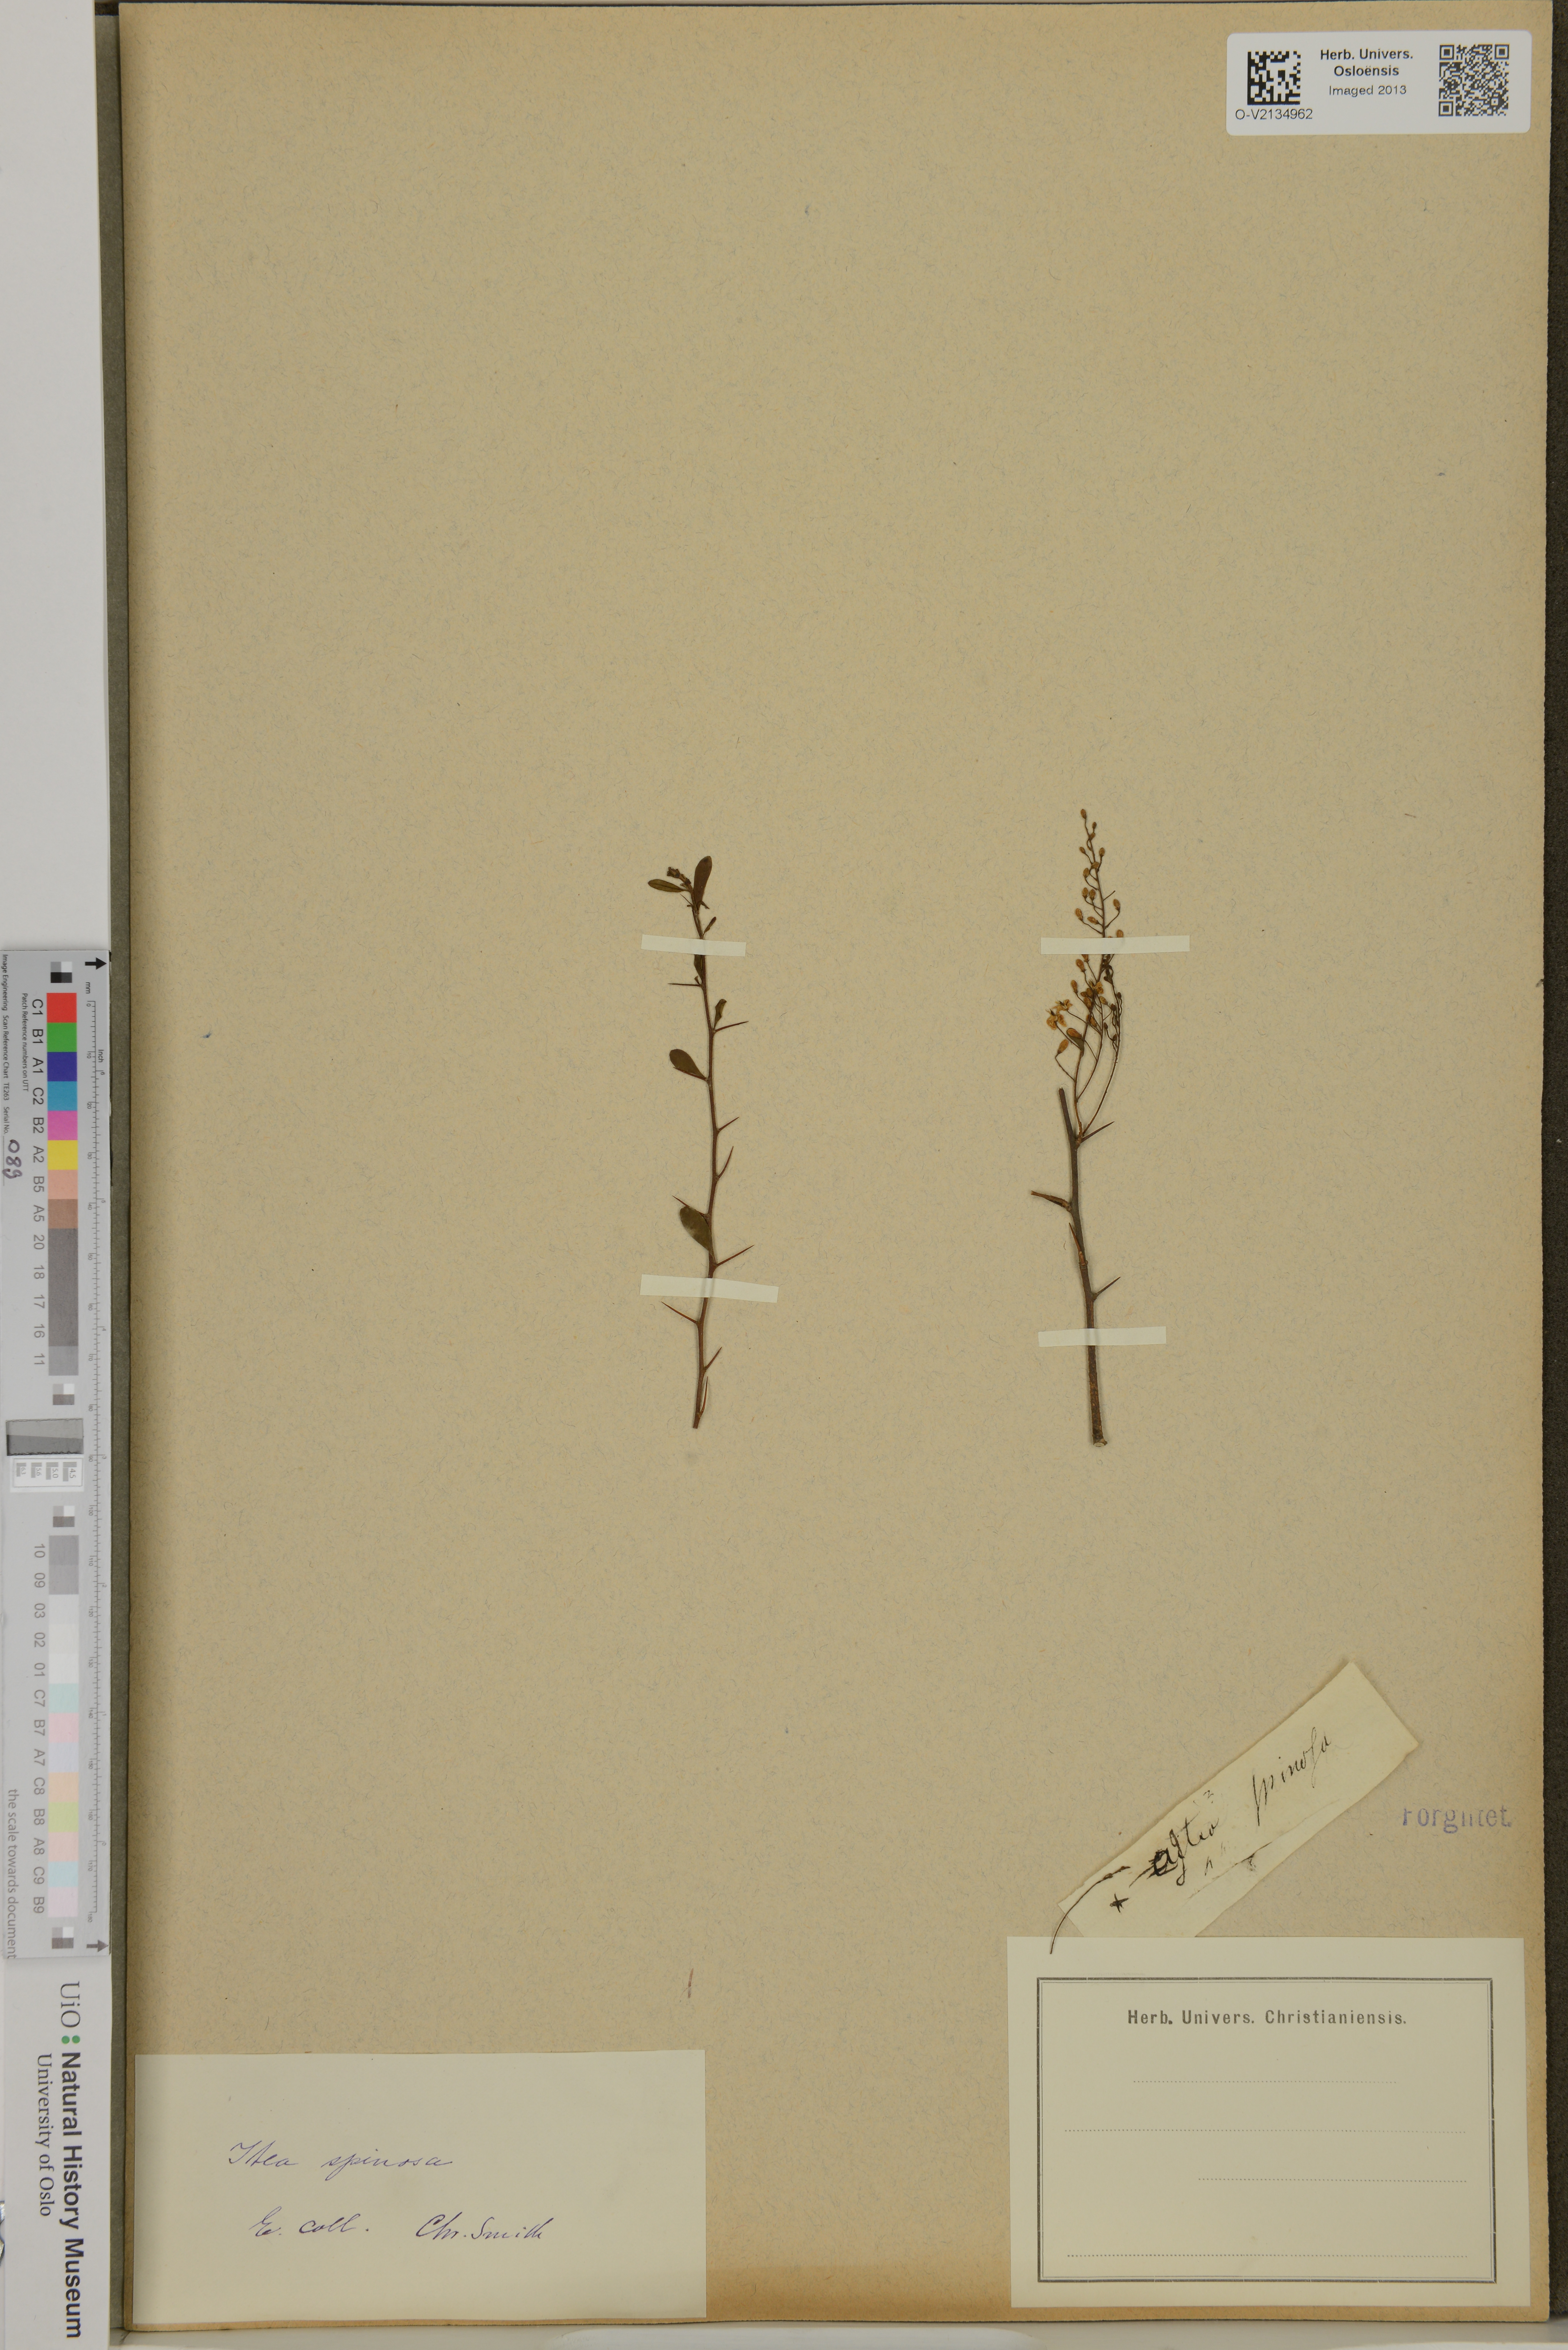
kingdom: Plantae
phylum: Tracheophyta
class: Magnoliopsida
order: Apiales
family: Pittosporaceae
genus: Bursaria
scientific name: Bursaria spinosa
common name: Australian blackthorn
